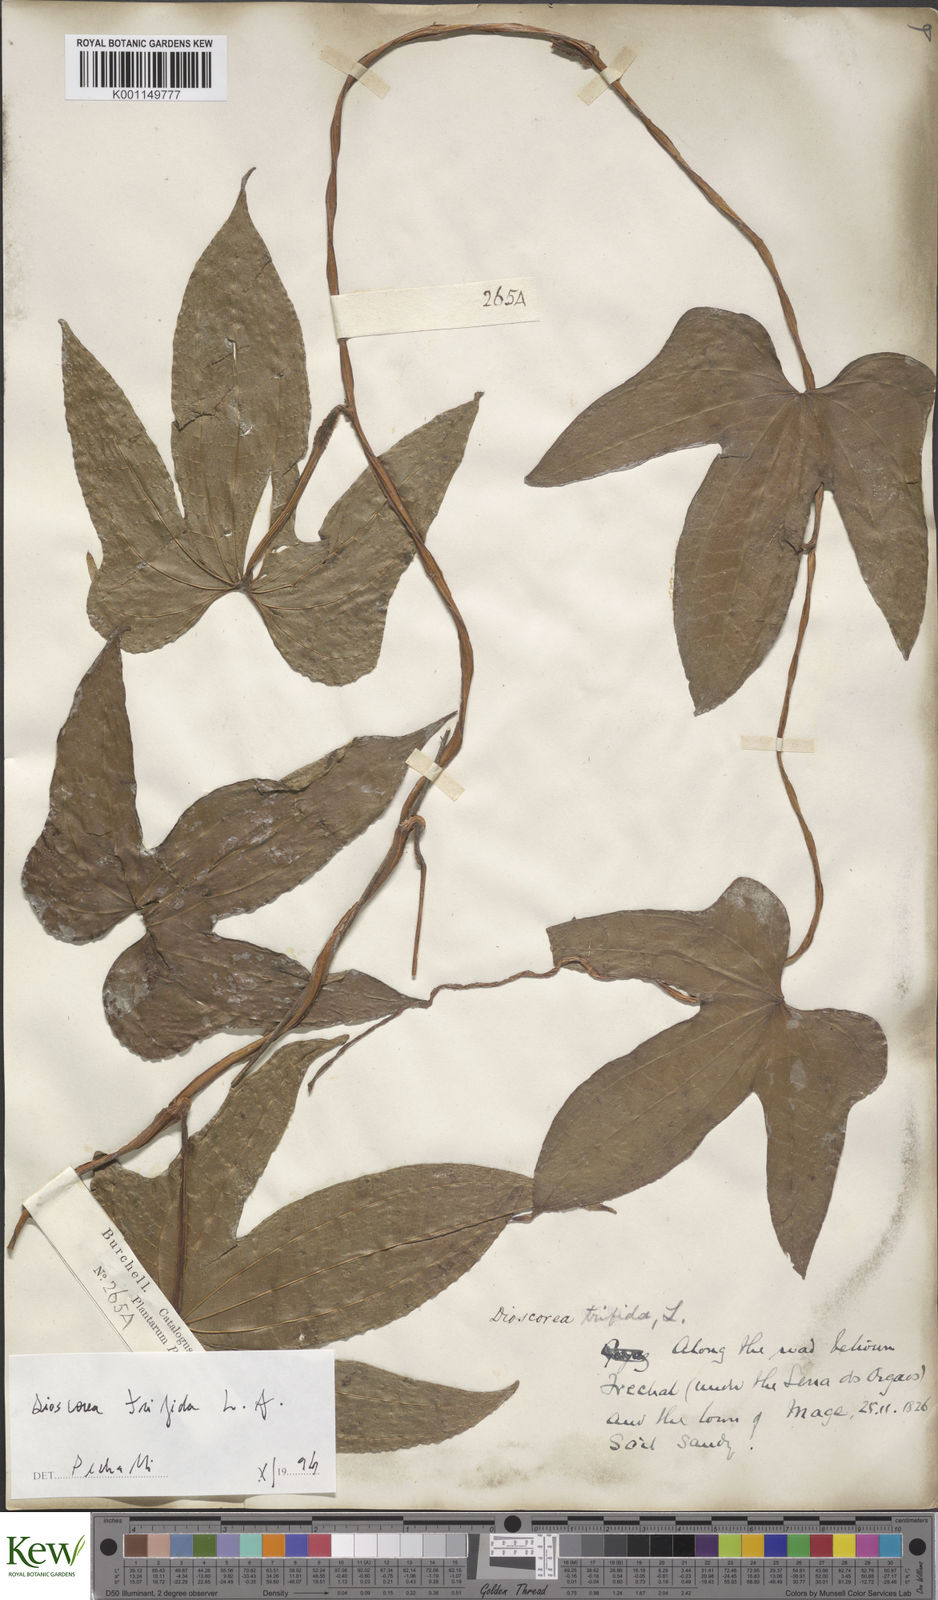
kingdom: Plantae
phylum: Tracheophyta
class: Liliopsida
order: Dioscoreales
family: Dioscoreaceae
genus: Dioscorea
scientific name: Dioscorea trifida
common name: Cush-cush
